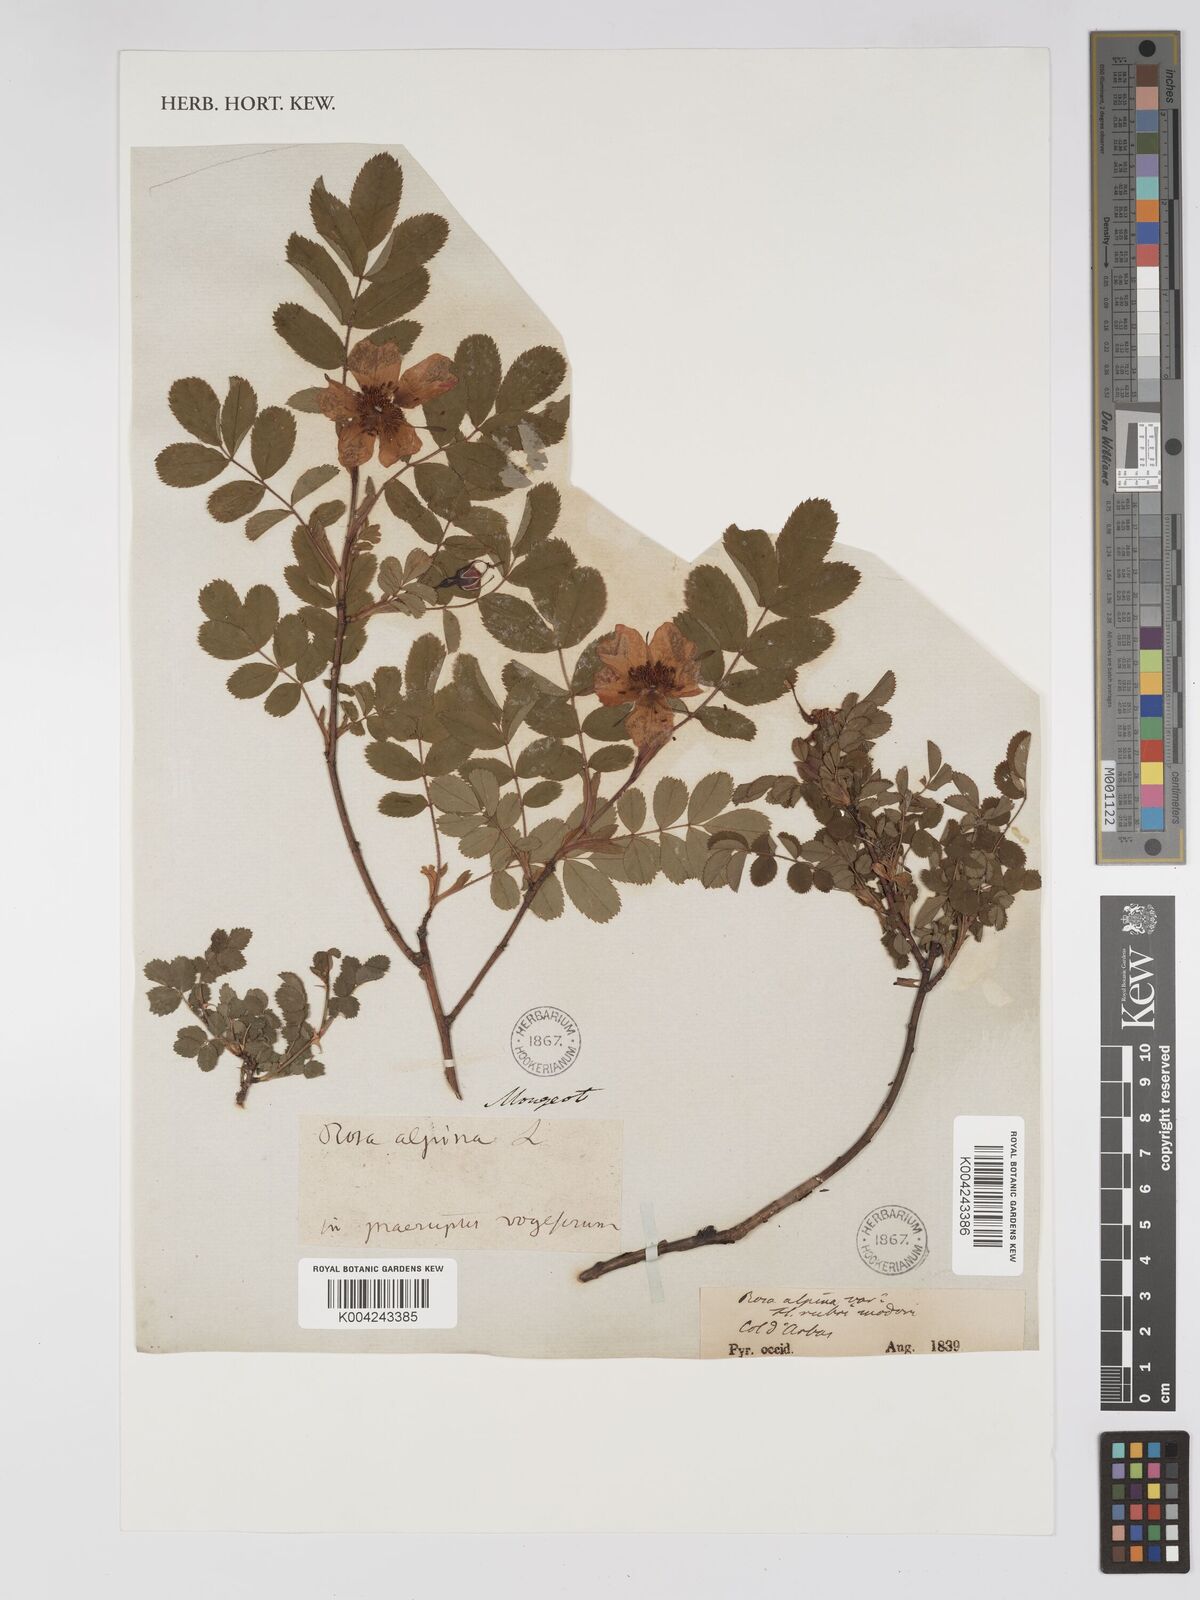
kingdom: Plantae
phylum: Tracheophyta
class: Magnoliopsida
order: Rosales
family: Rosaceae
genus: Rosa
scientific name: Rosa pendulina
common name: Alpine rose
